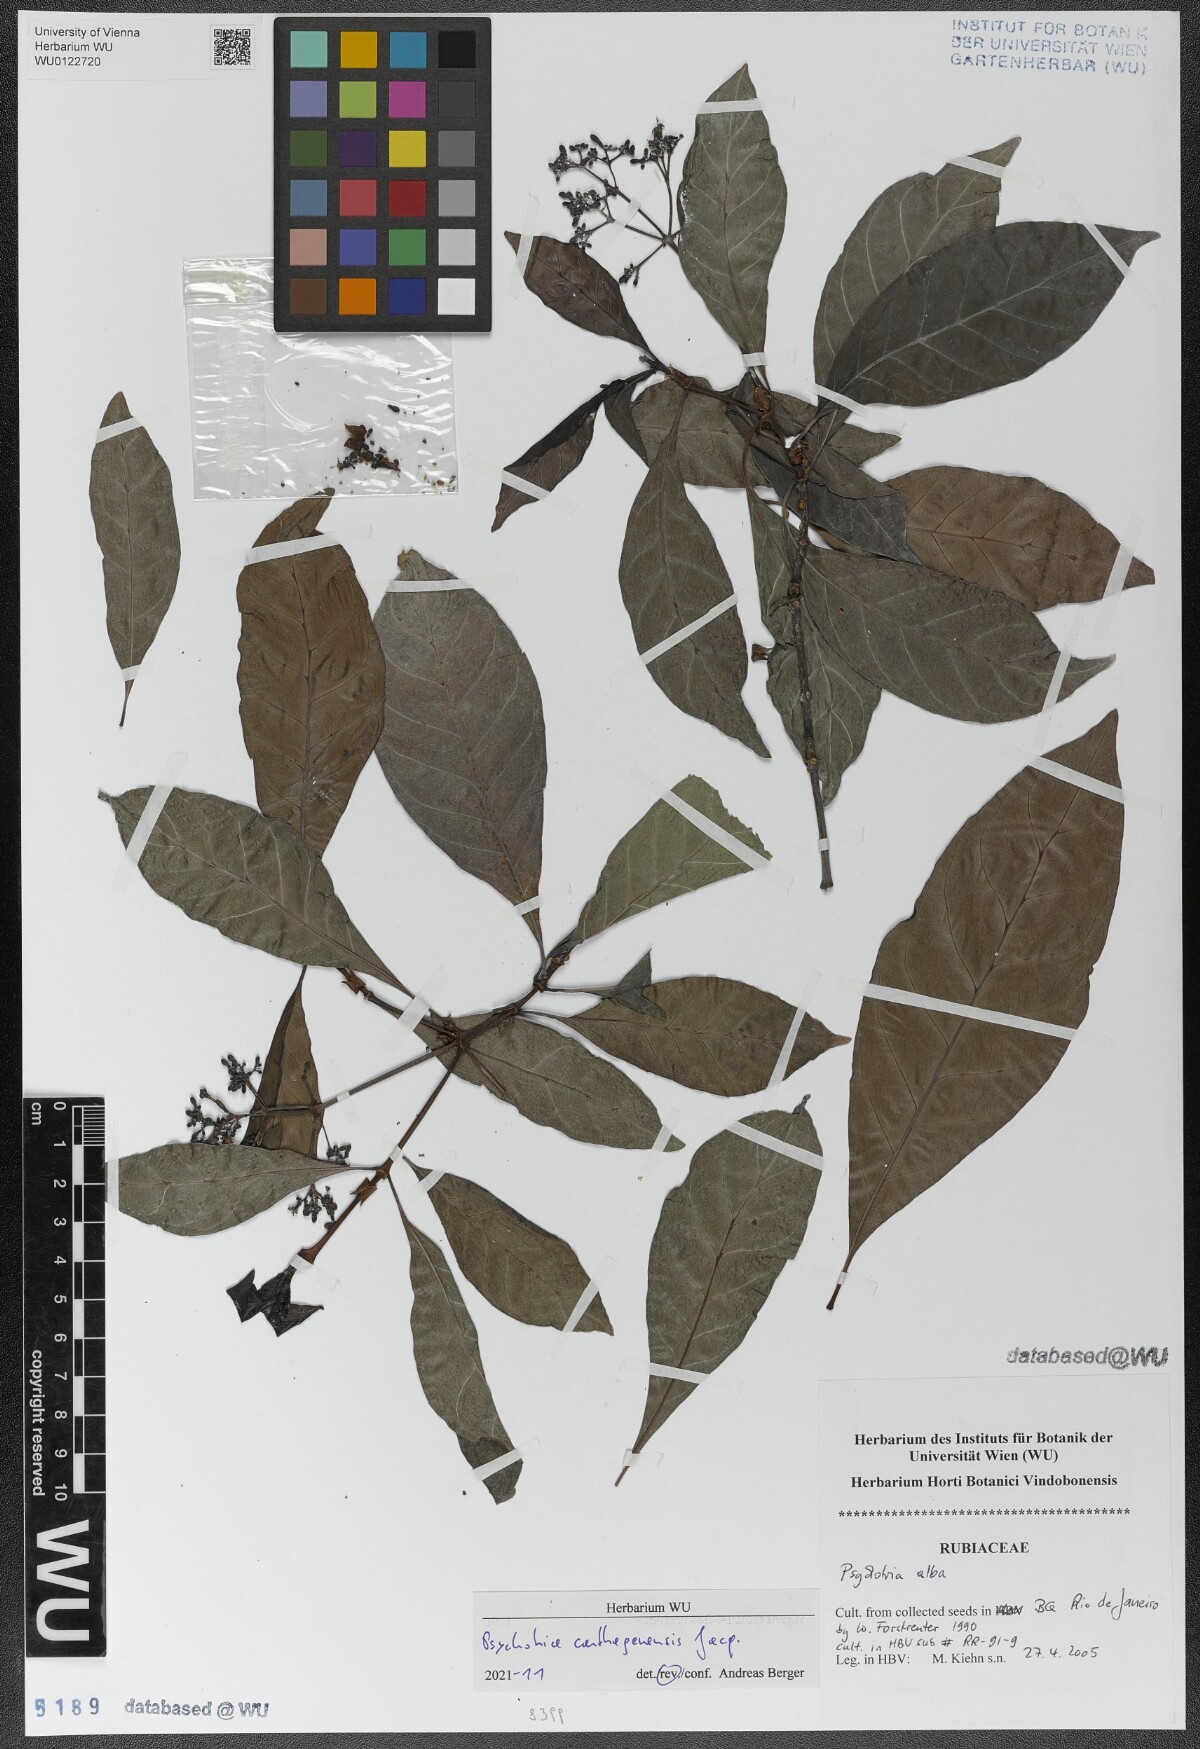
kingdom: Plantae
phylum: Tracheophyta
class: Magnoliopsida
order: Gentianales
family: Rubiaceae
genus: Psychotria
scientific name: Psychotria carthagenensis
